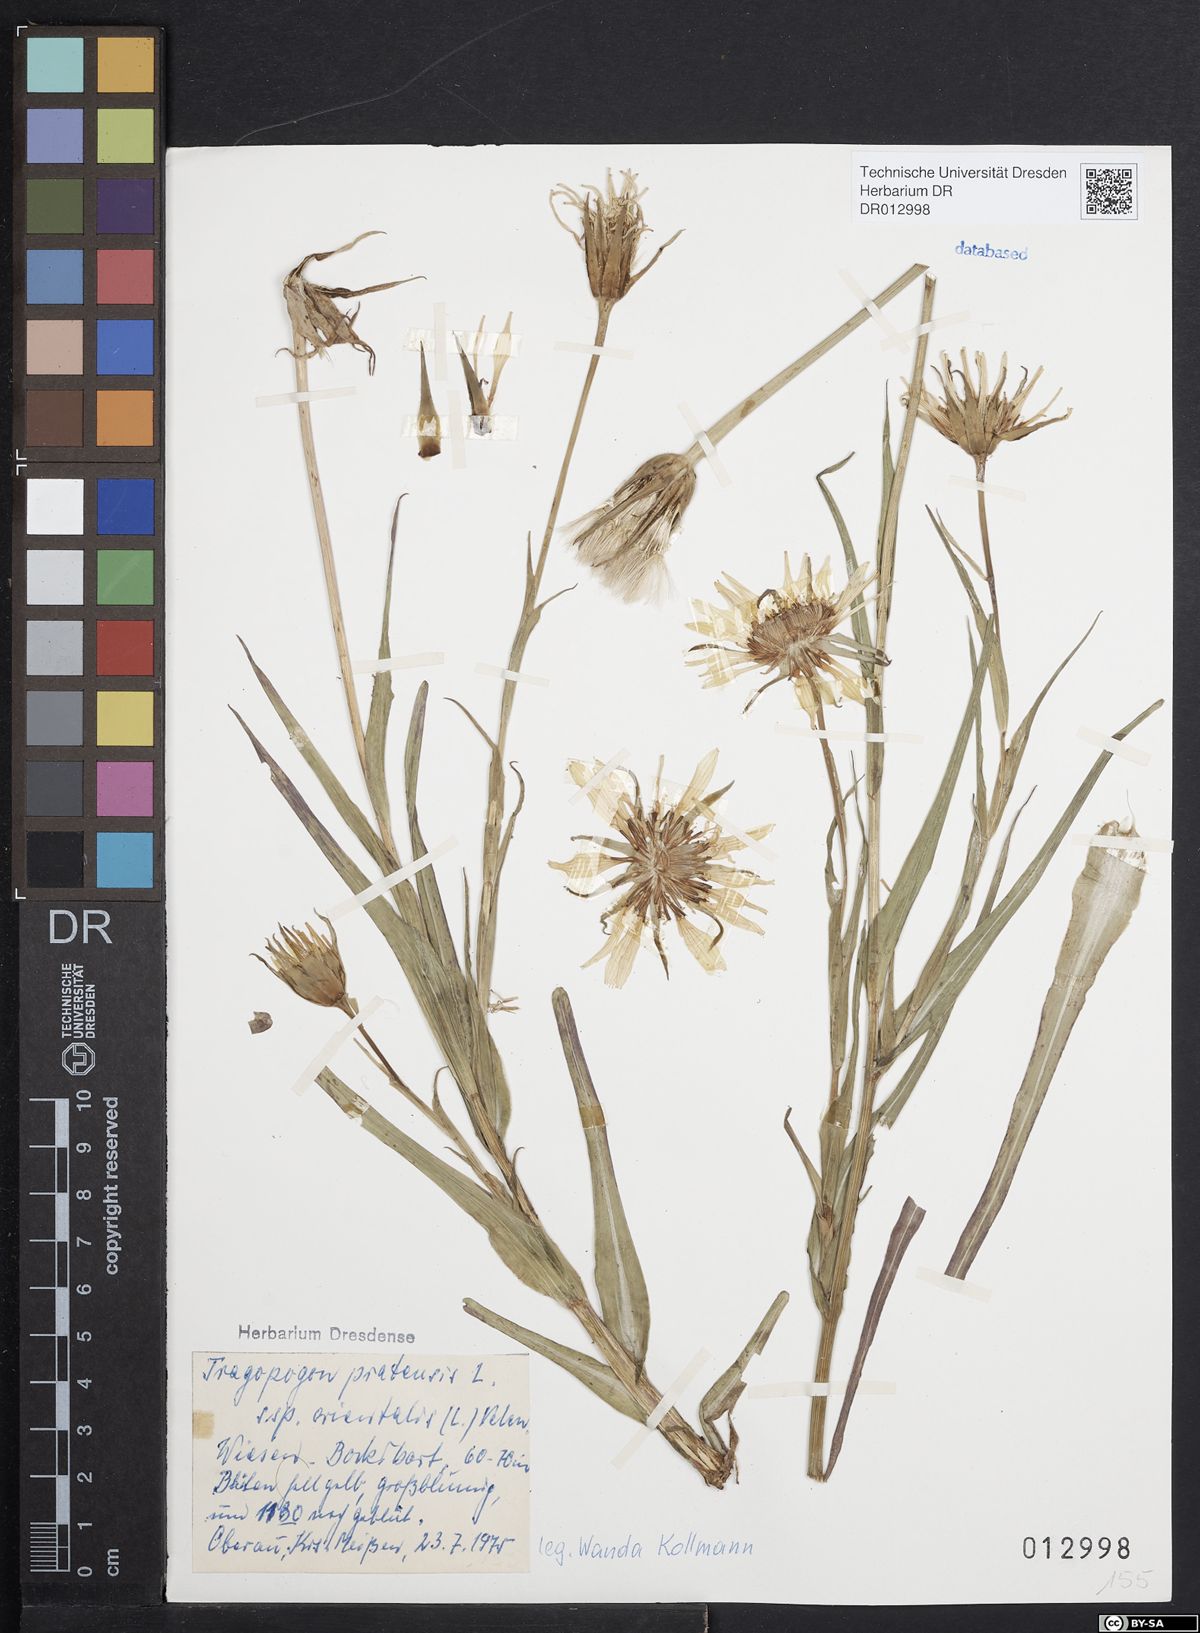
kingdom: Plantae
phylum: Tracheophyta
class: Magnoliopsida
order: Asterales
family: Asteraceae
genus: Tragopogon
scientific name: Tragopogon orientalis
